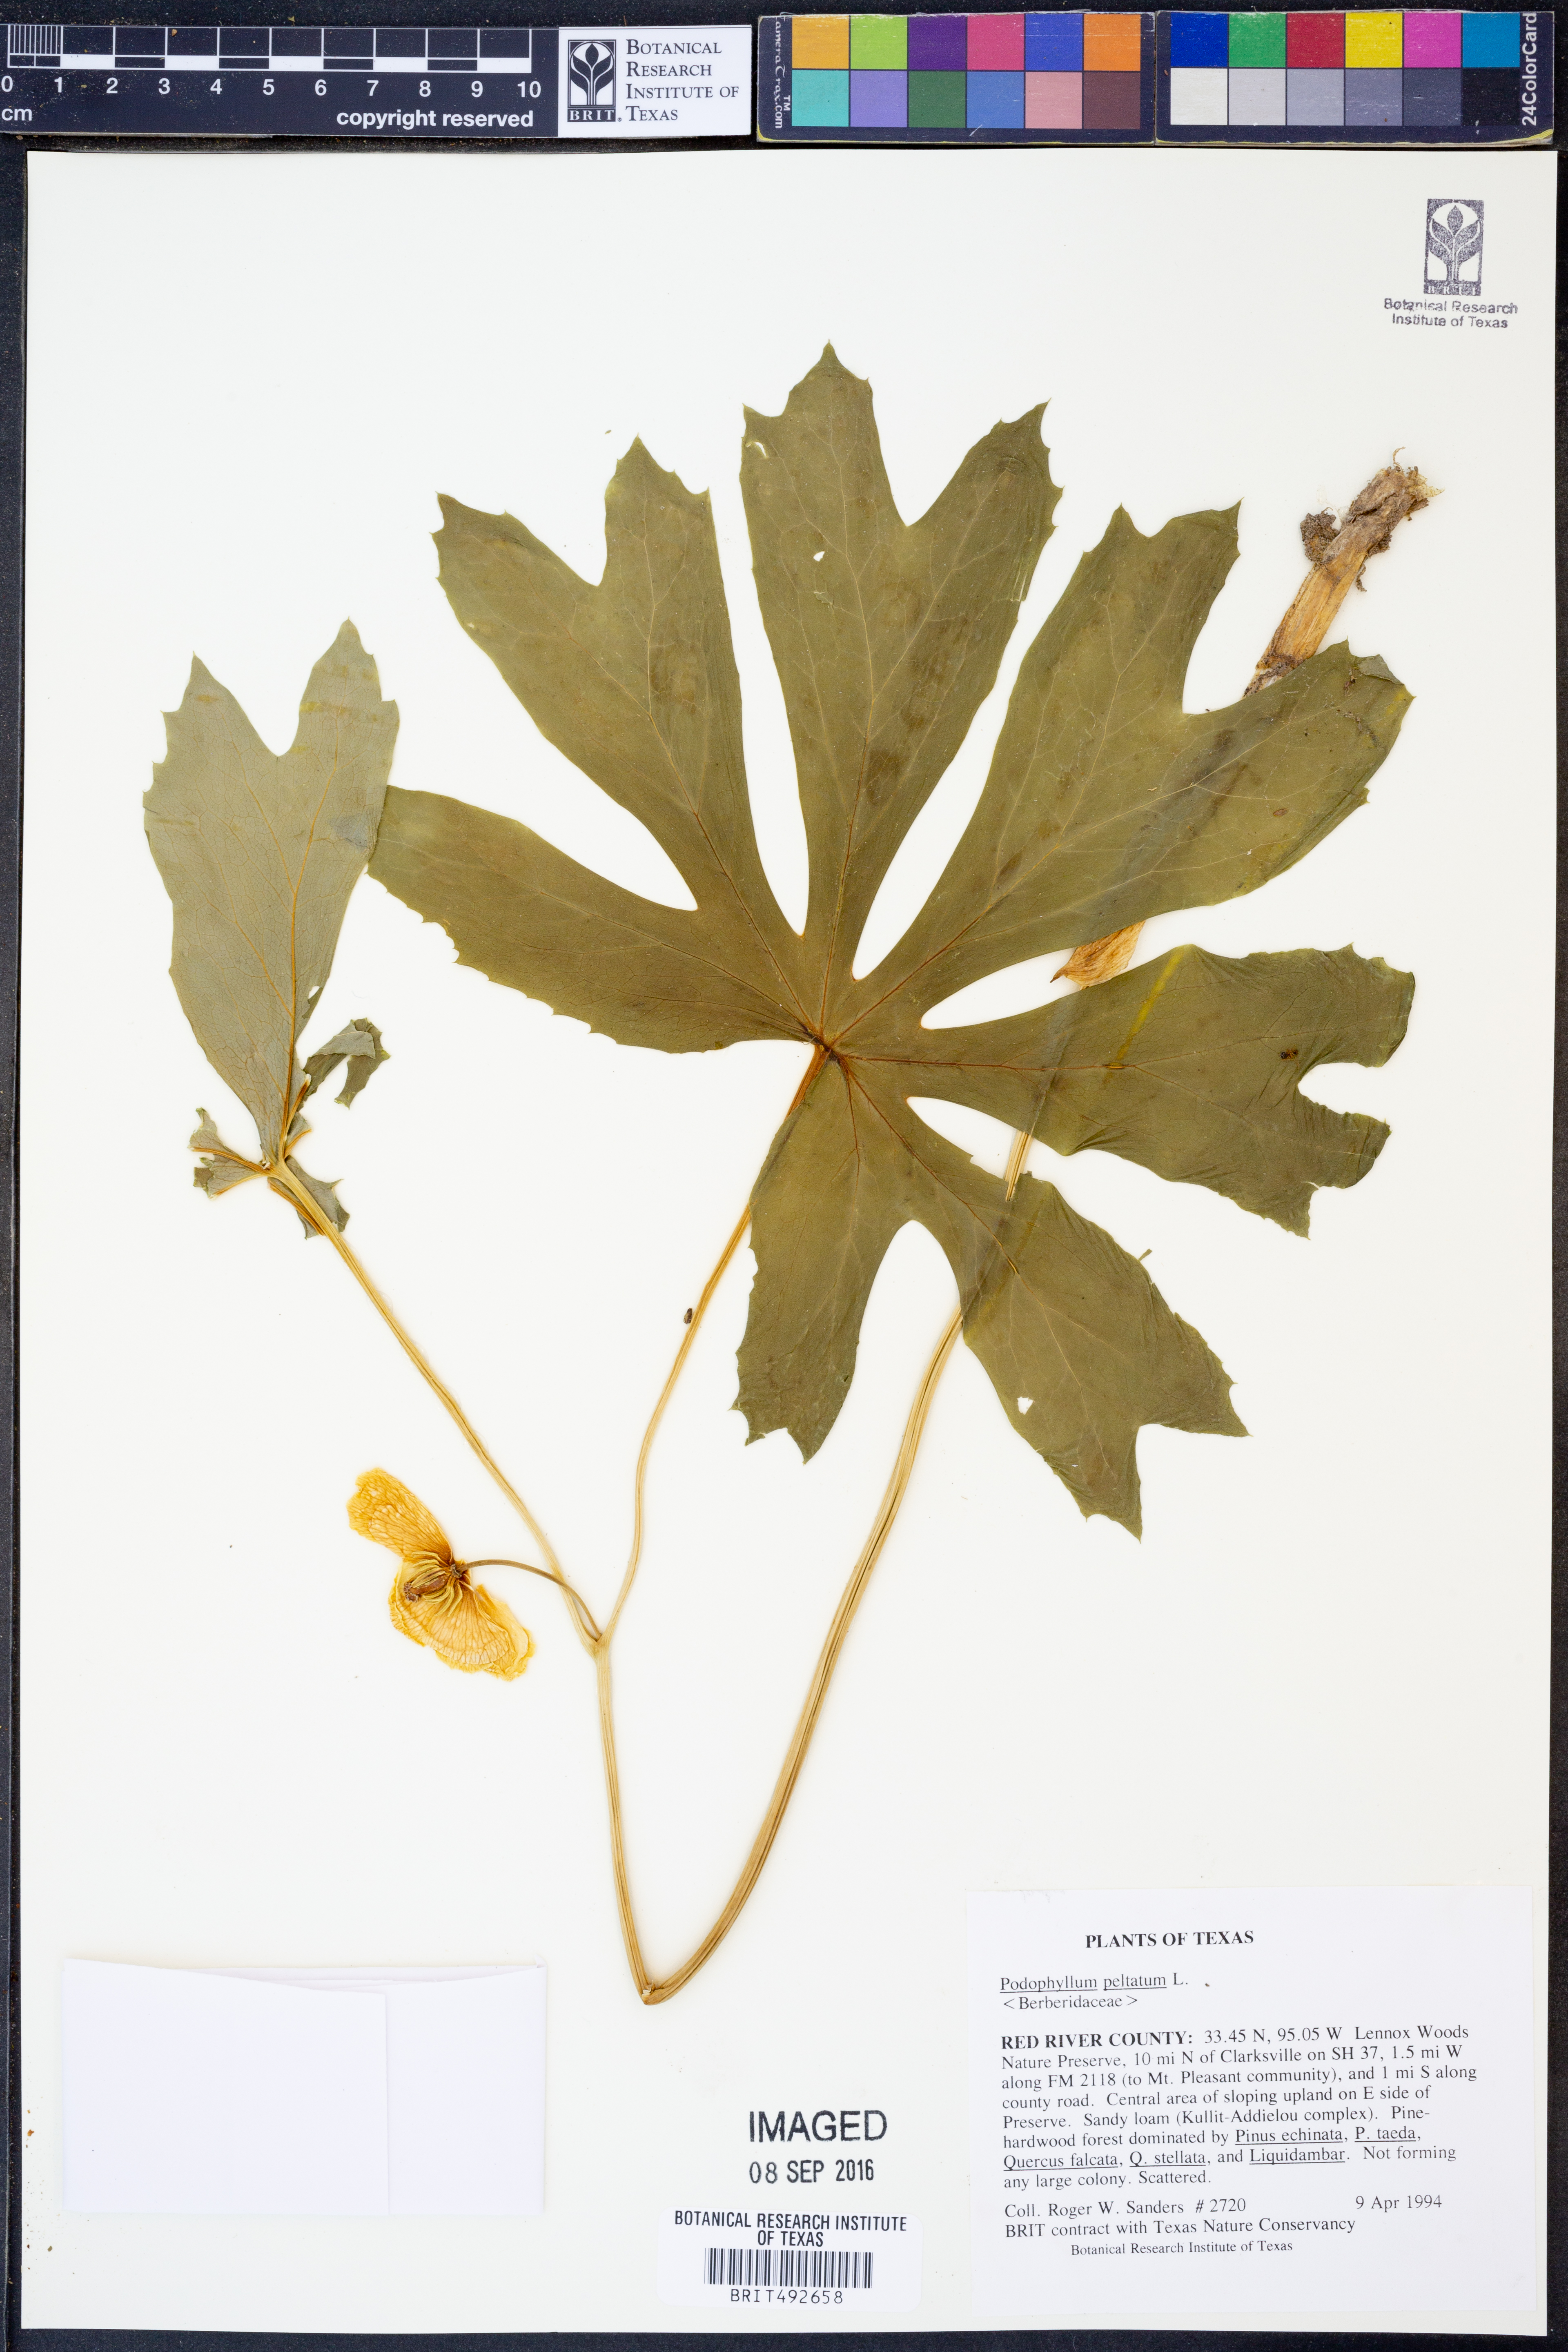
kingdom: Plantae
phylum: Tracheophyta
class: Magnoliopsida
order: Ranunculales
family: Berberidaceae
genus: Podophyllum
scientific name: Podophyllum peltatum
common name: Wild mandrake
